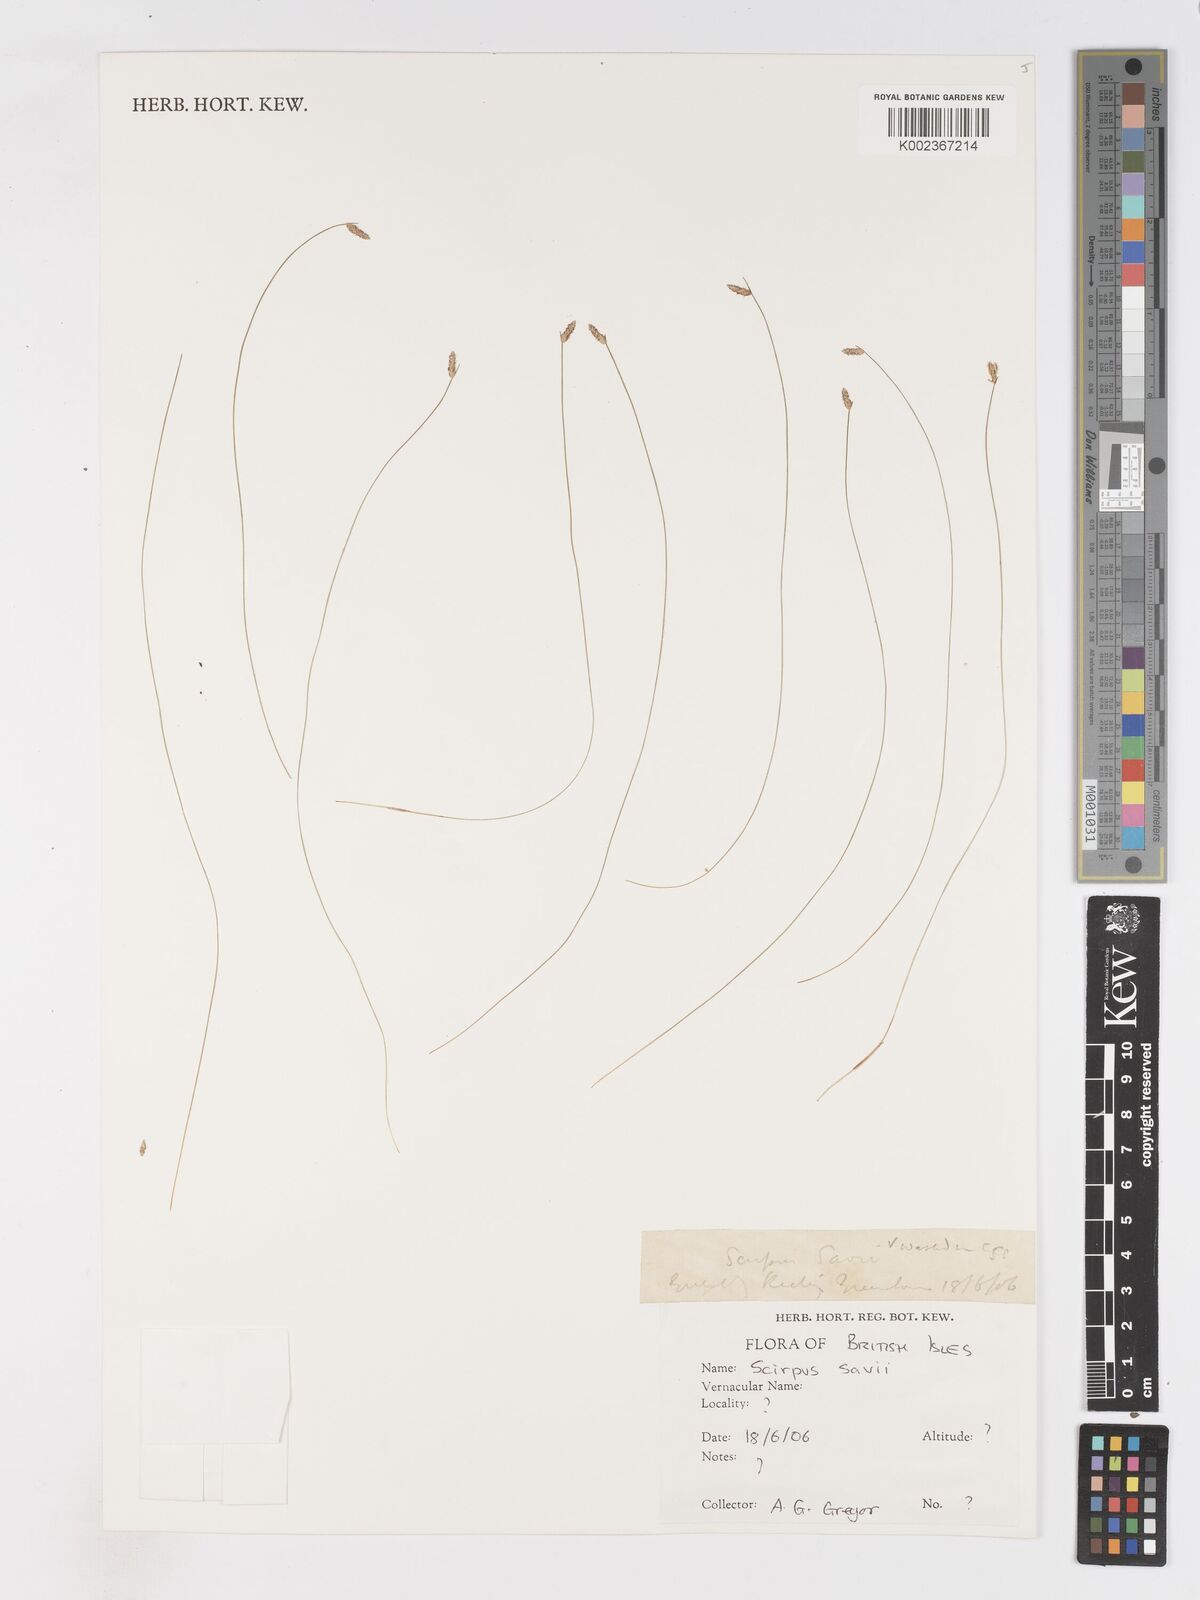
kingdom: Plantae
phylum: Tracheophyta
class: Liliopsida
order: Poales
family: Cyperaceae
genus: Isolepis
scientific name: Isolepis cernua
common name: Slender club-rush
